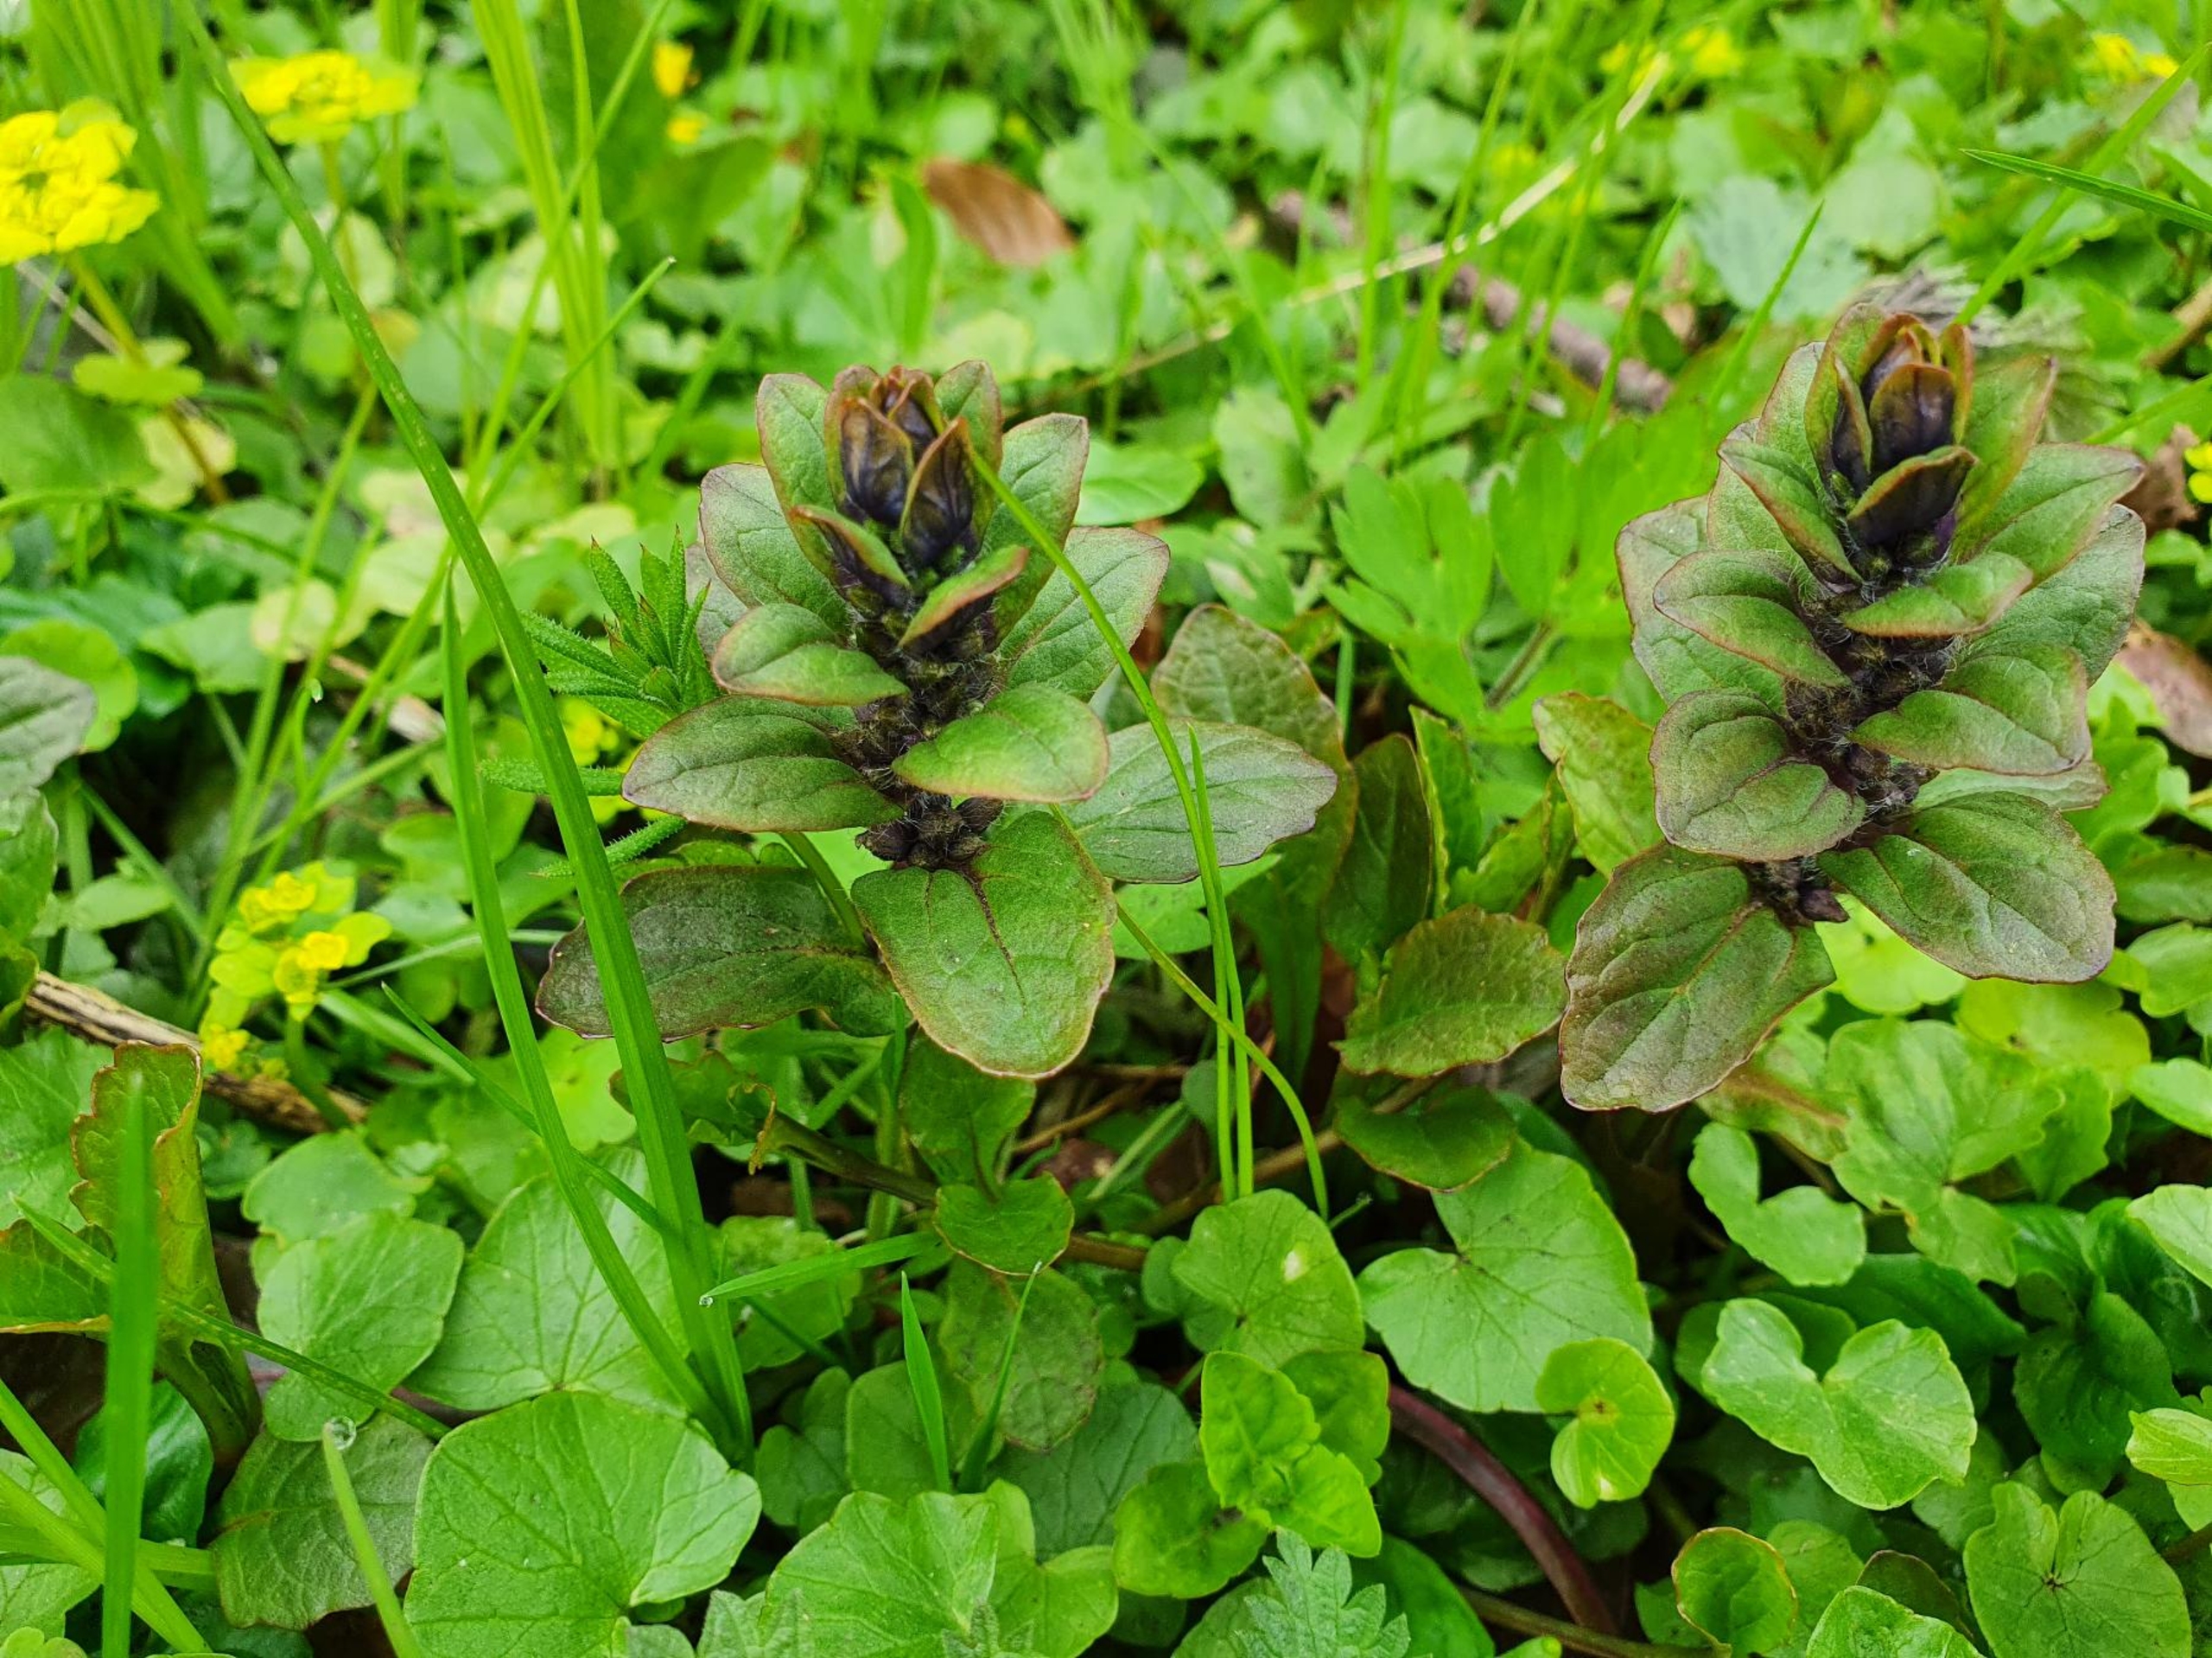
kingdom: Plantae
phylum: Tracheophyta
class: Magnoliopsida
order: Lamiales
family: Lamiaceae
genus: Ajuga
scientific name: Ajuga reptans
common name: Krybende læbeløs
